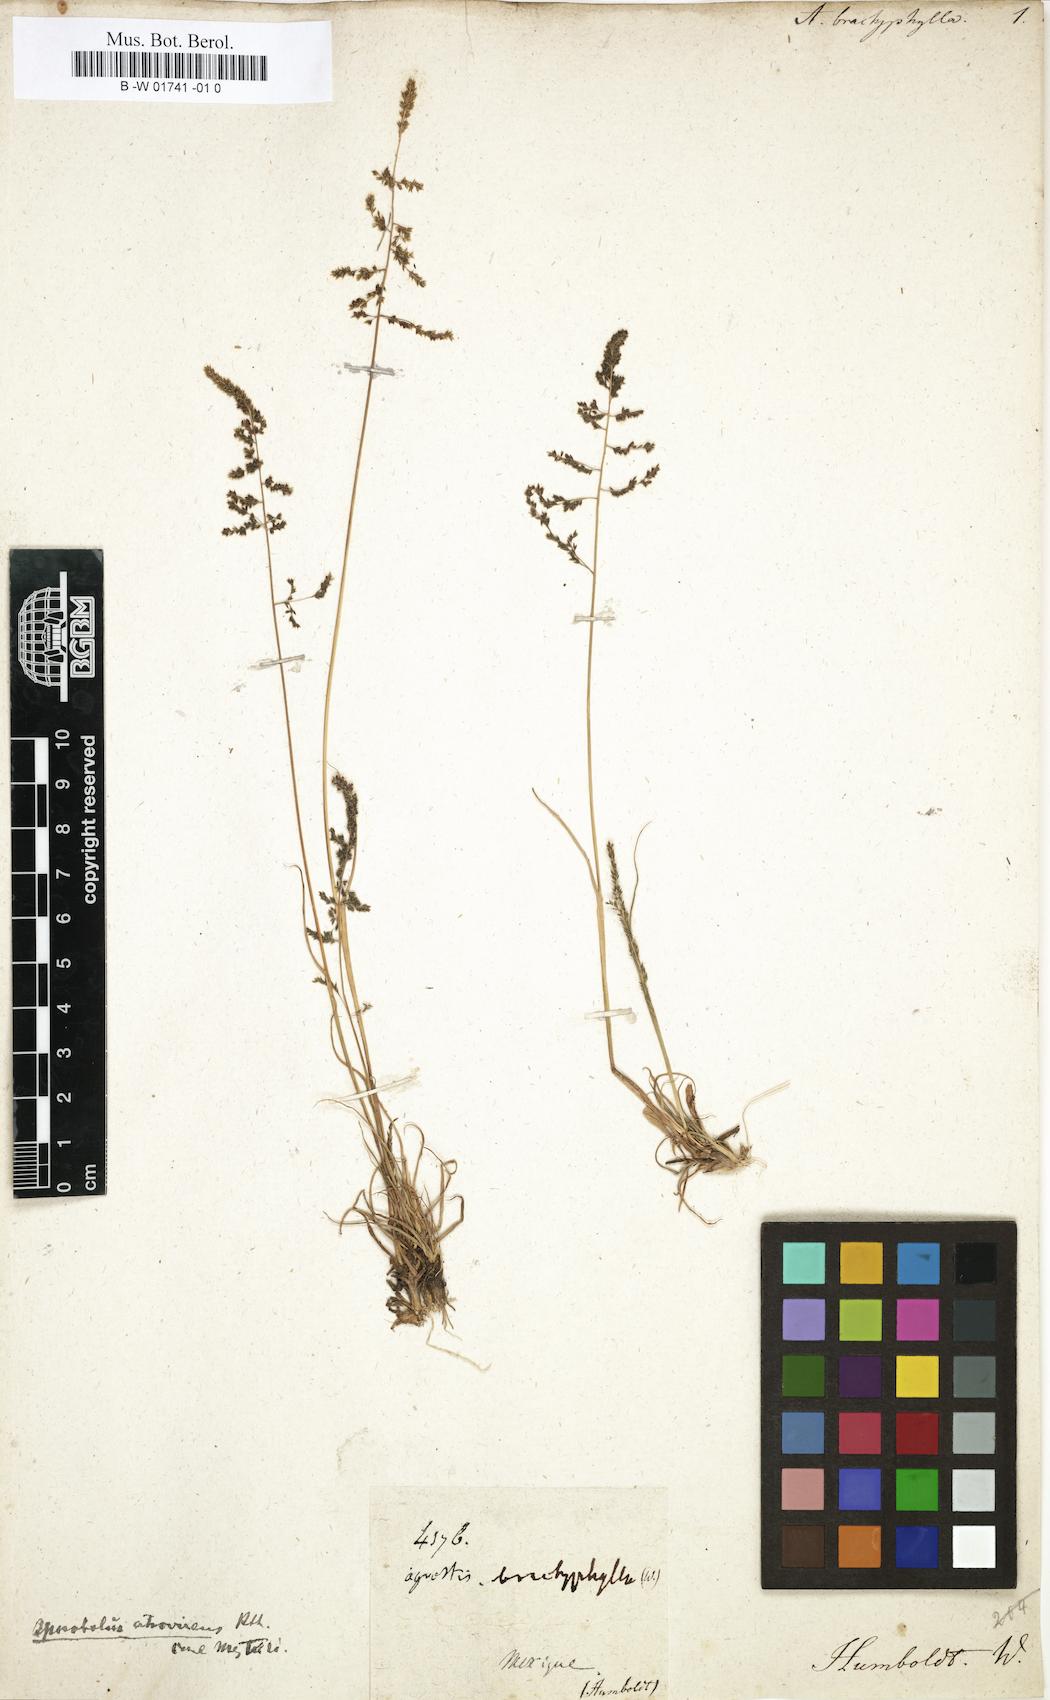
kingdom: Plantae
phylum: Tracheophyta
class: Liliopsida
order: Poales
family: Poaceae
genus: Muhlenbergia
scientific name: Muhlenbergia ciliata
